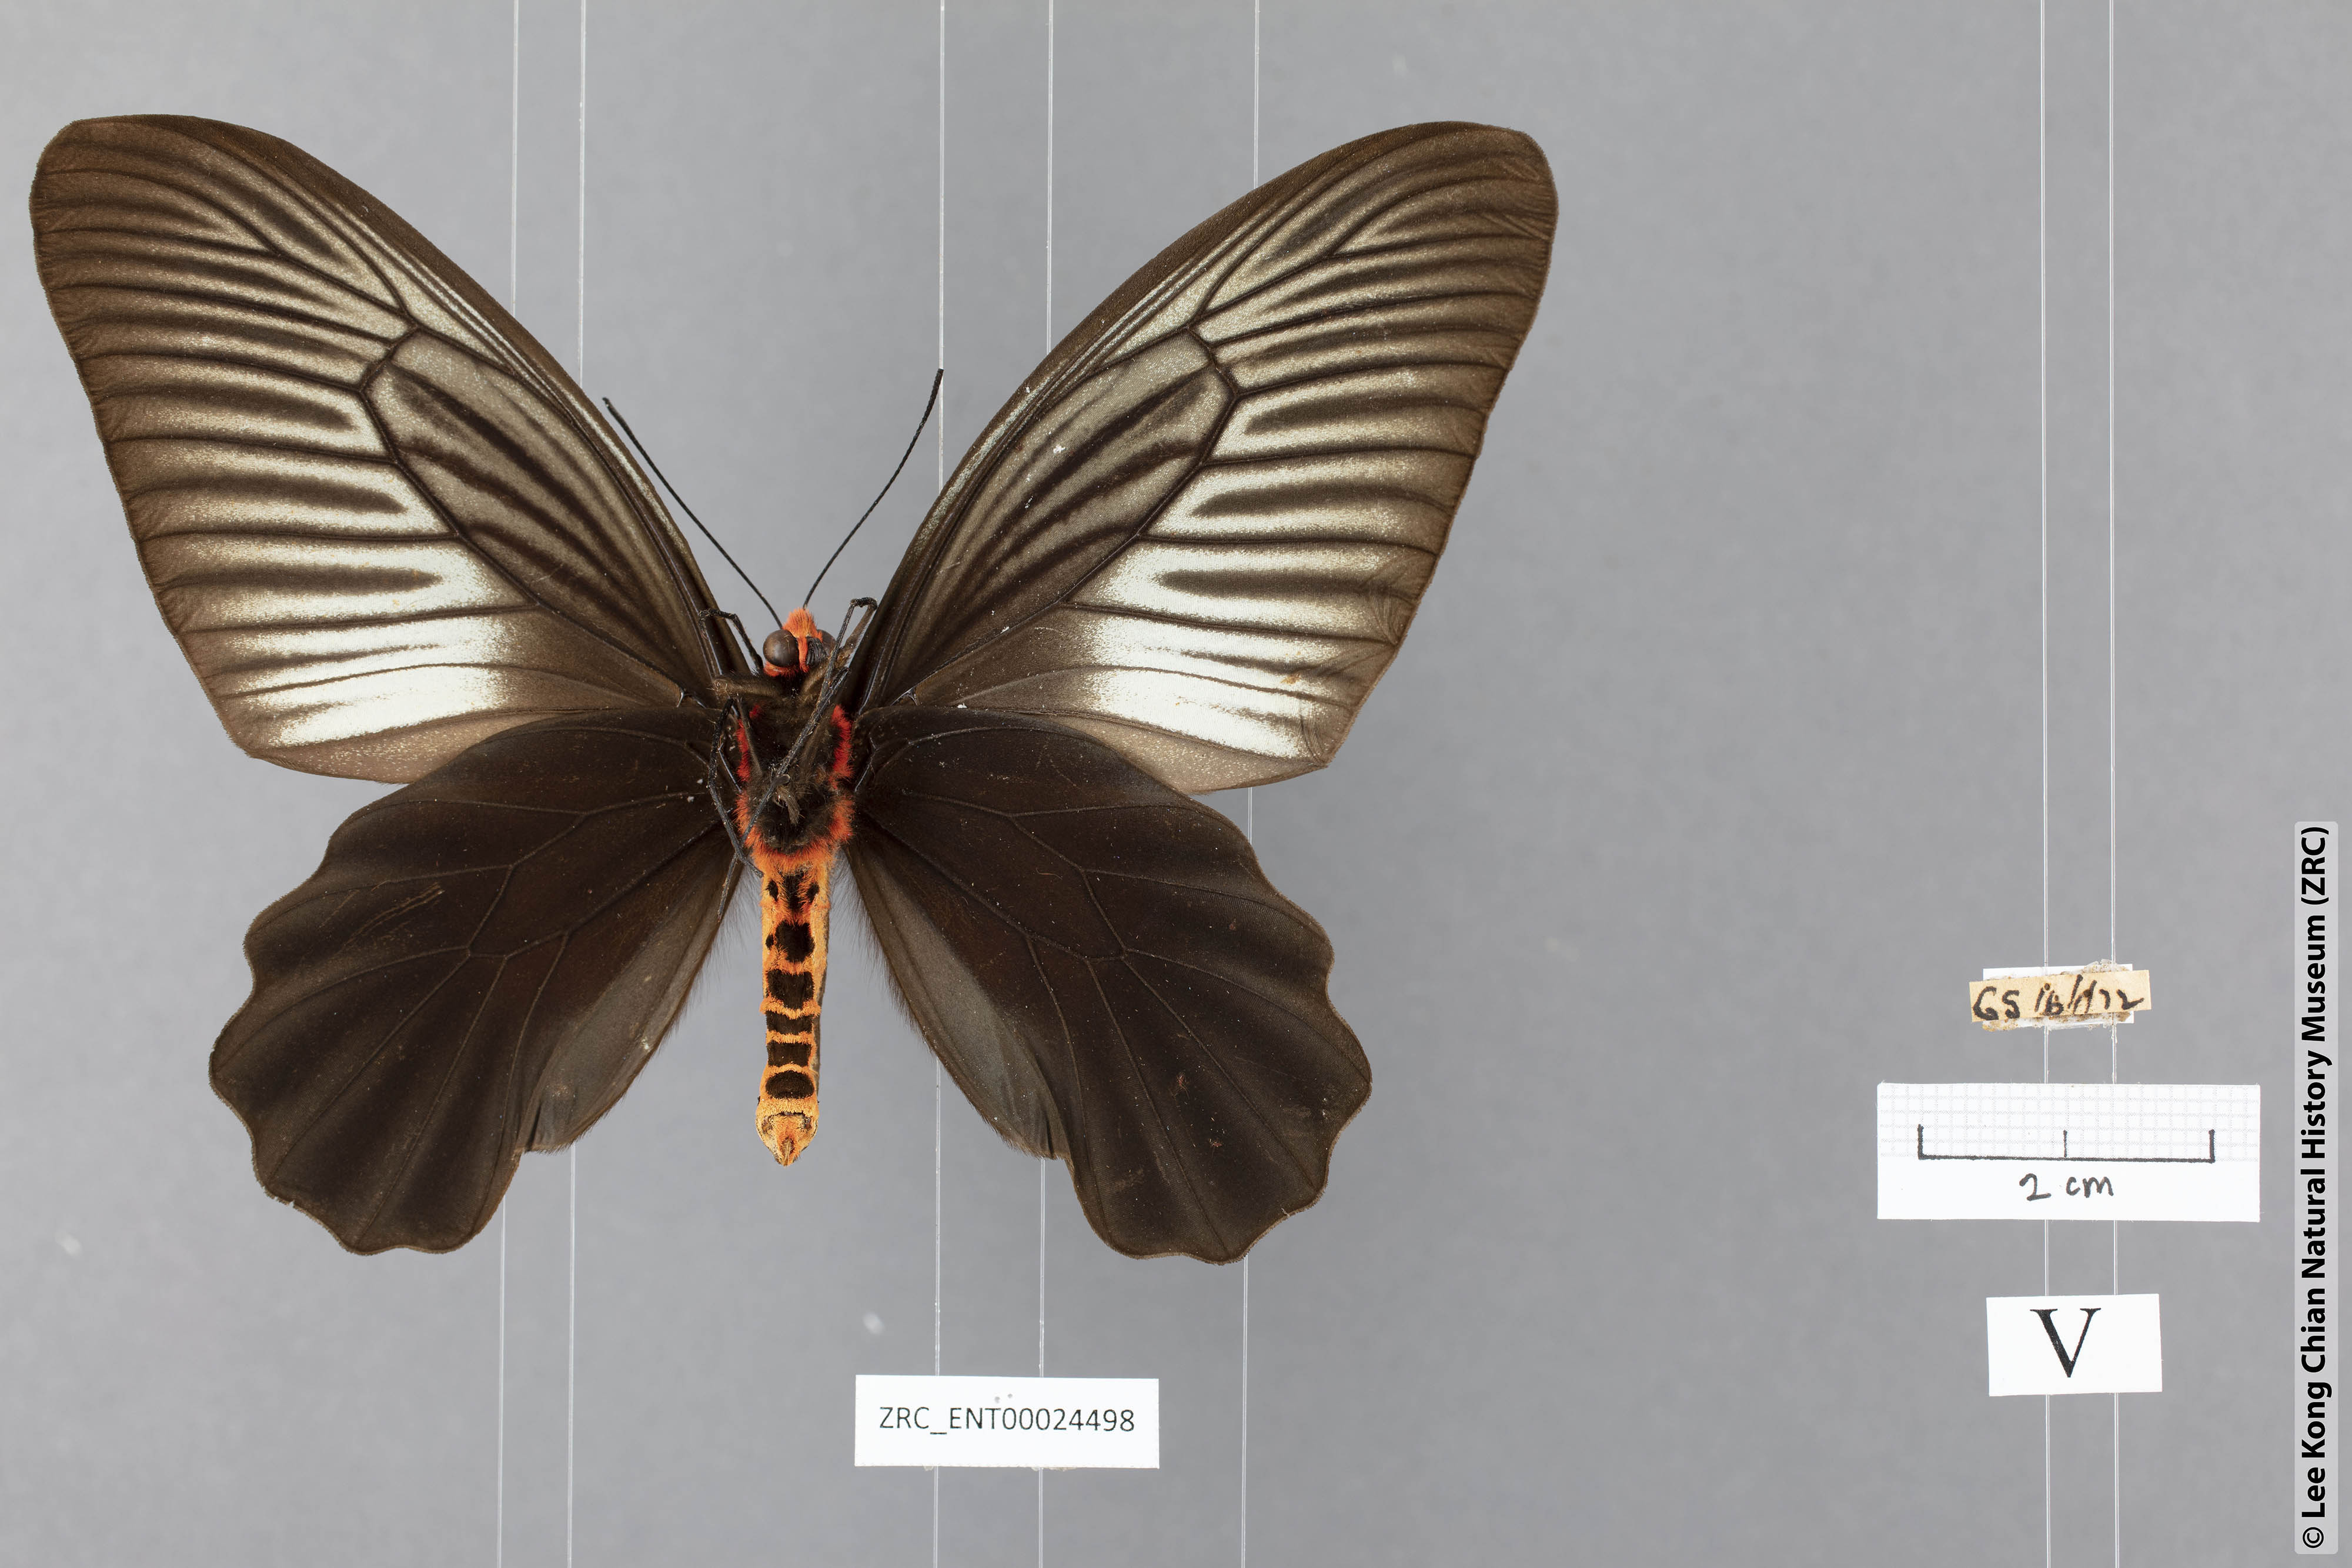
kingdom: Animalia
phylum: Arthropoda
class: Insecta
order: Lepidoptera
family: Papilionidae
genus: Atrophaneura
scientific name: Atrophaneura varuna
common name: Common batwing
